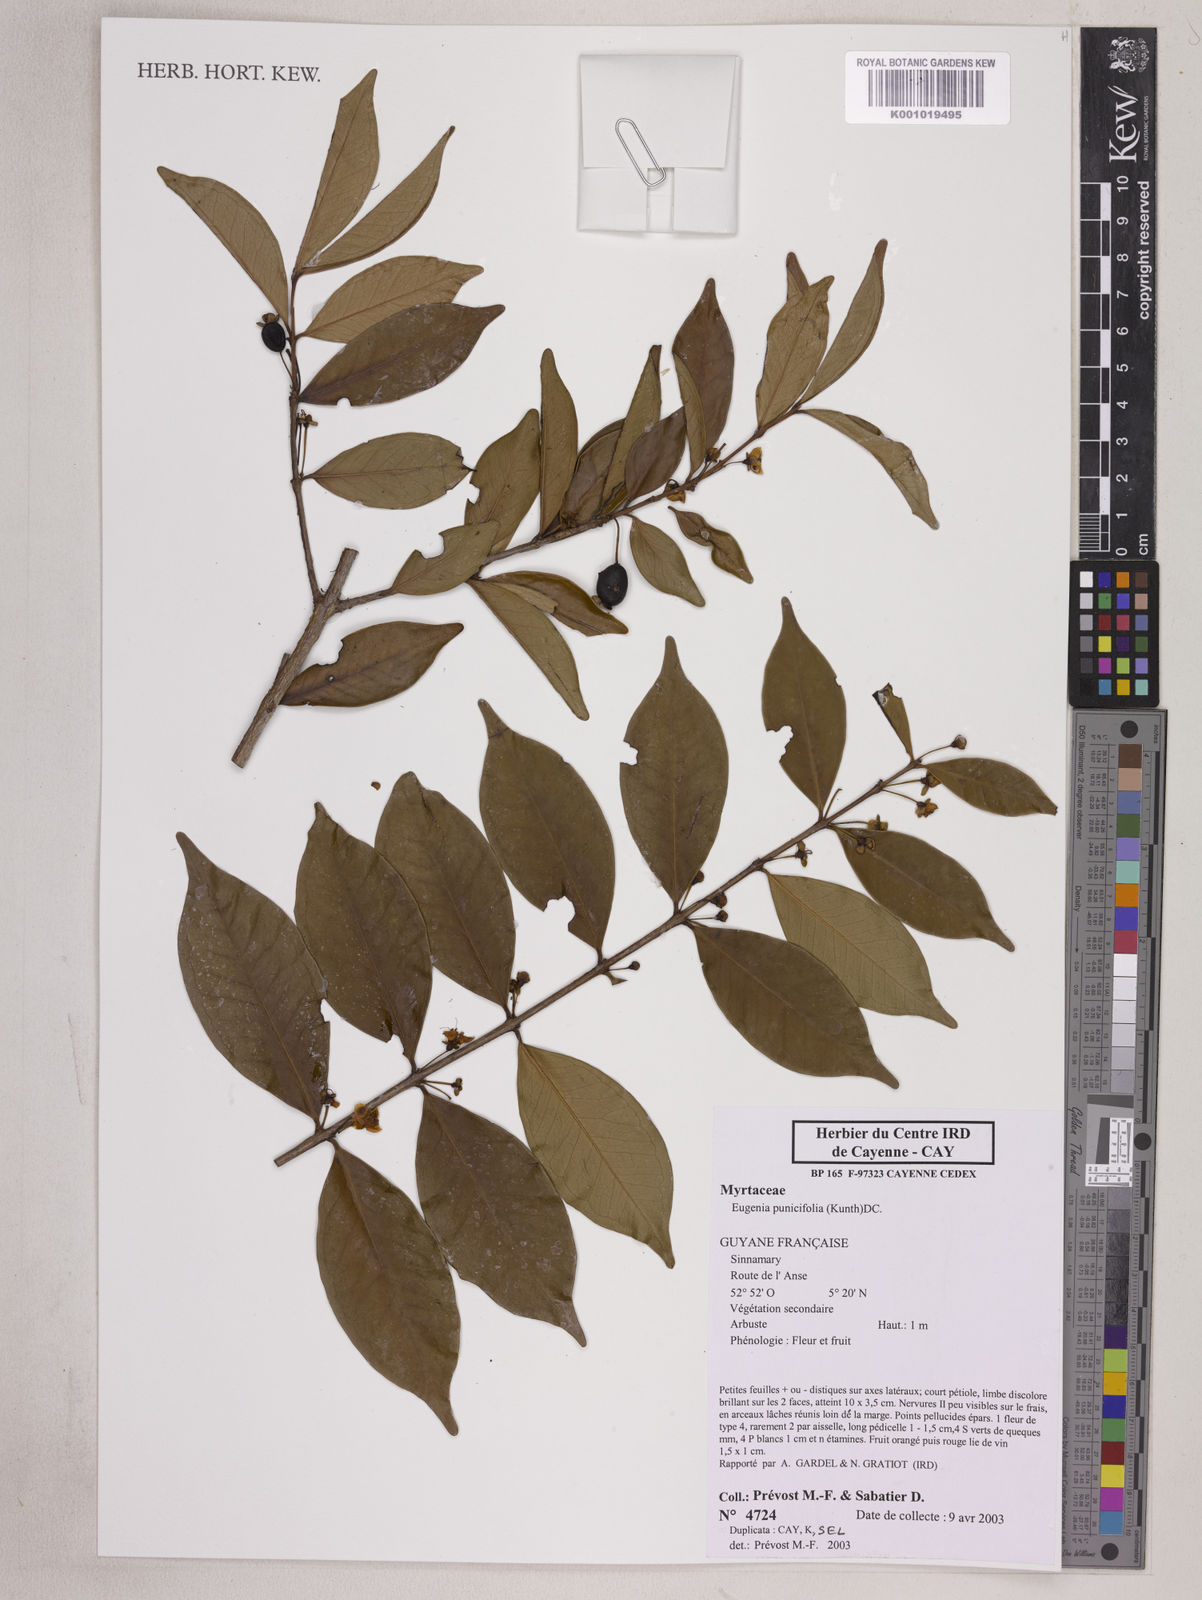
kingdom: Plantae
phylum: Tracheophyta
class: Magnoliopsida
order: Myrtales
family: Myrtaceae
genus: Eugenia
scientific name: Eugenia punicifolia
